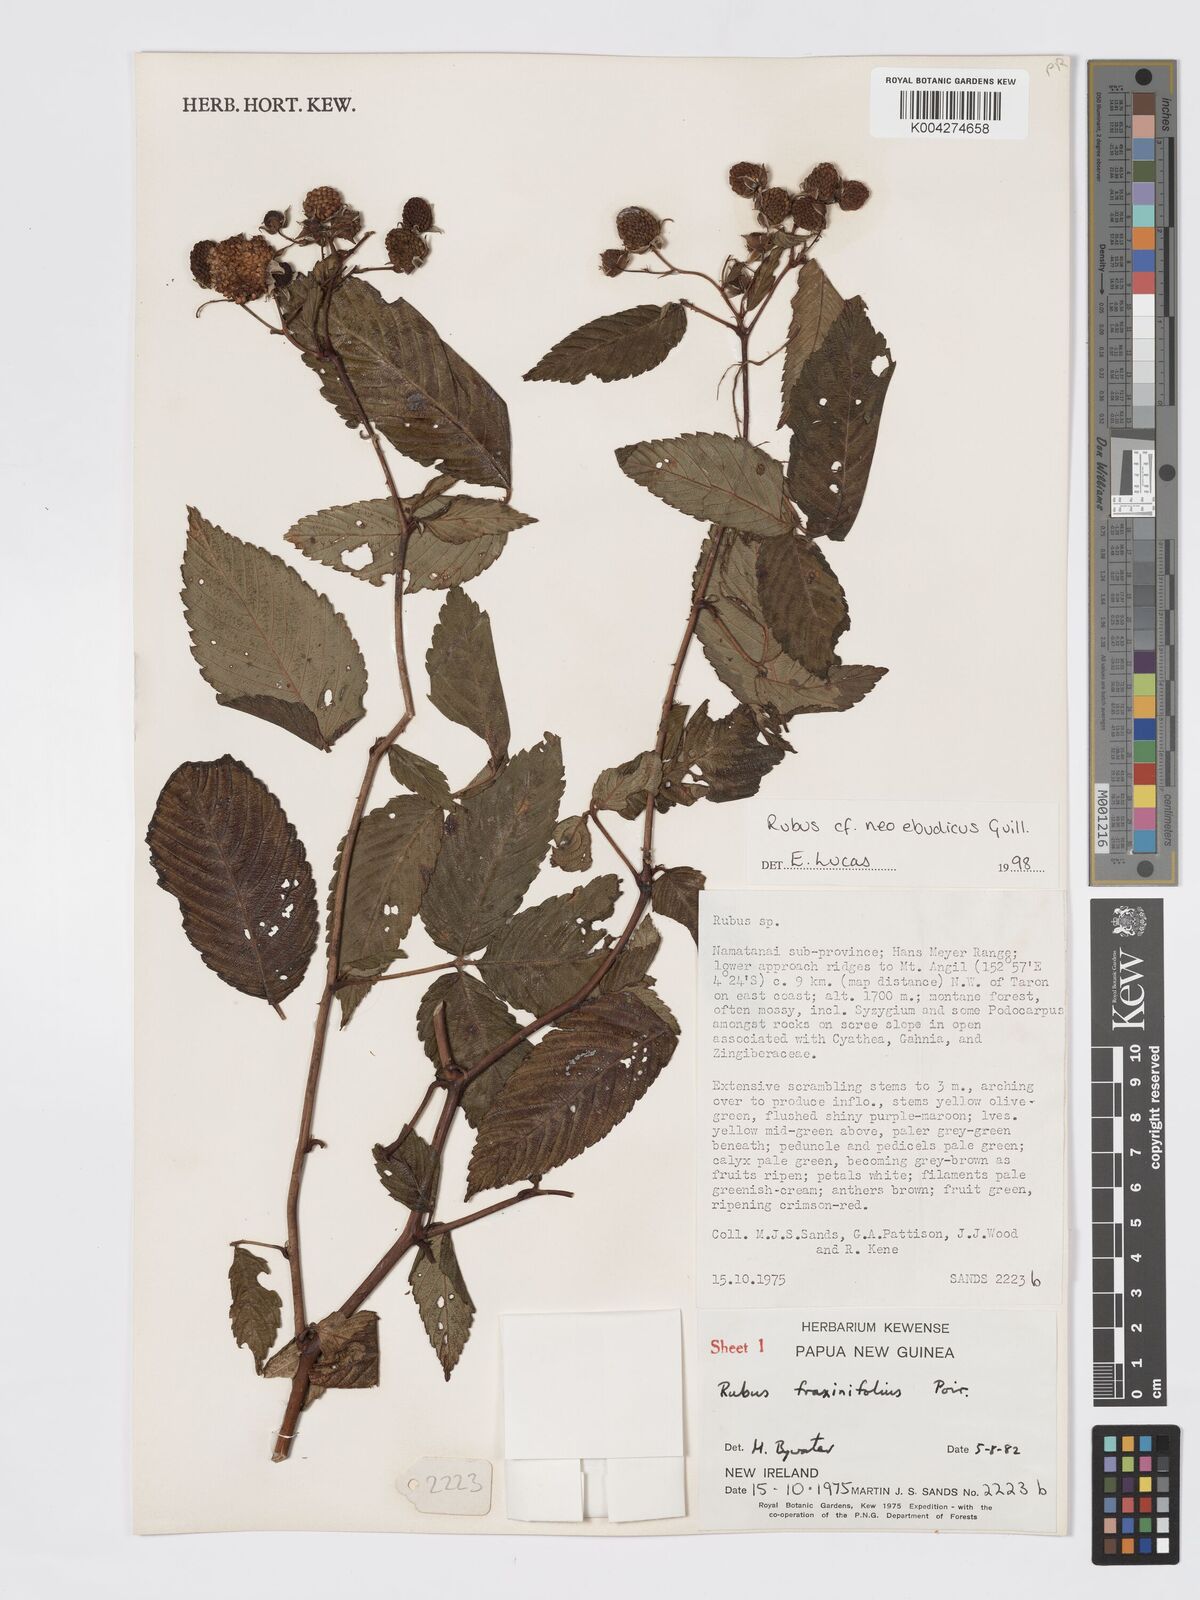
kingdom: Plantae
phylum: Tracheophyta
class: Magnoliopsida
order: Rosales
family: Rosaceae
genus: Rubus
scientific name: Rubus neoebudicus
